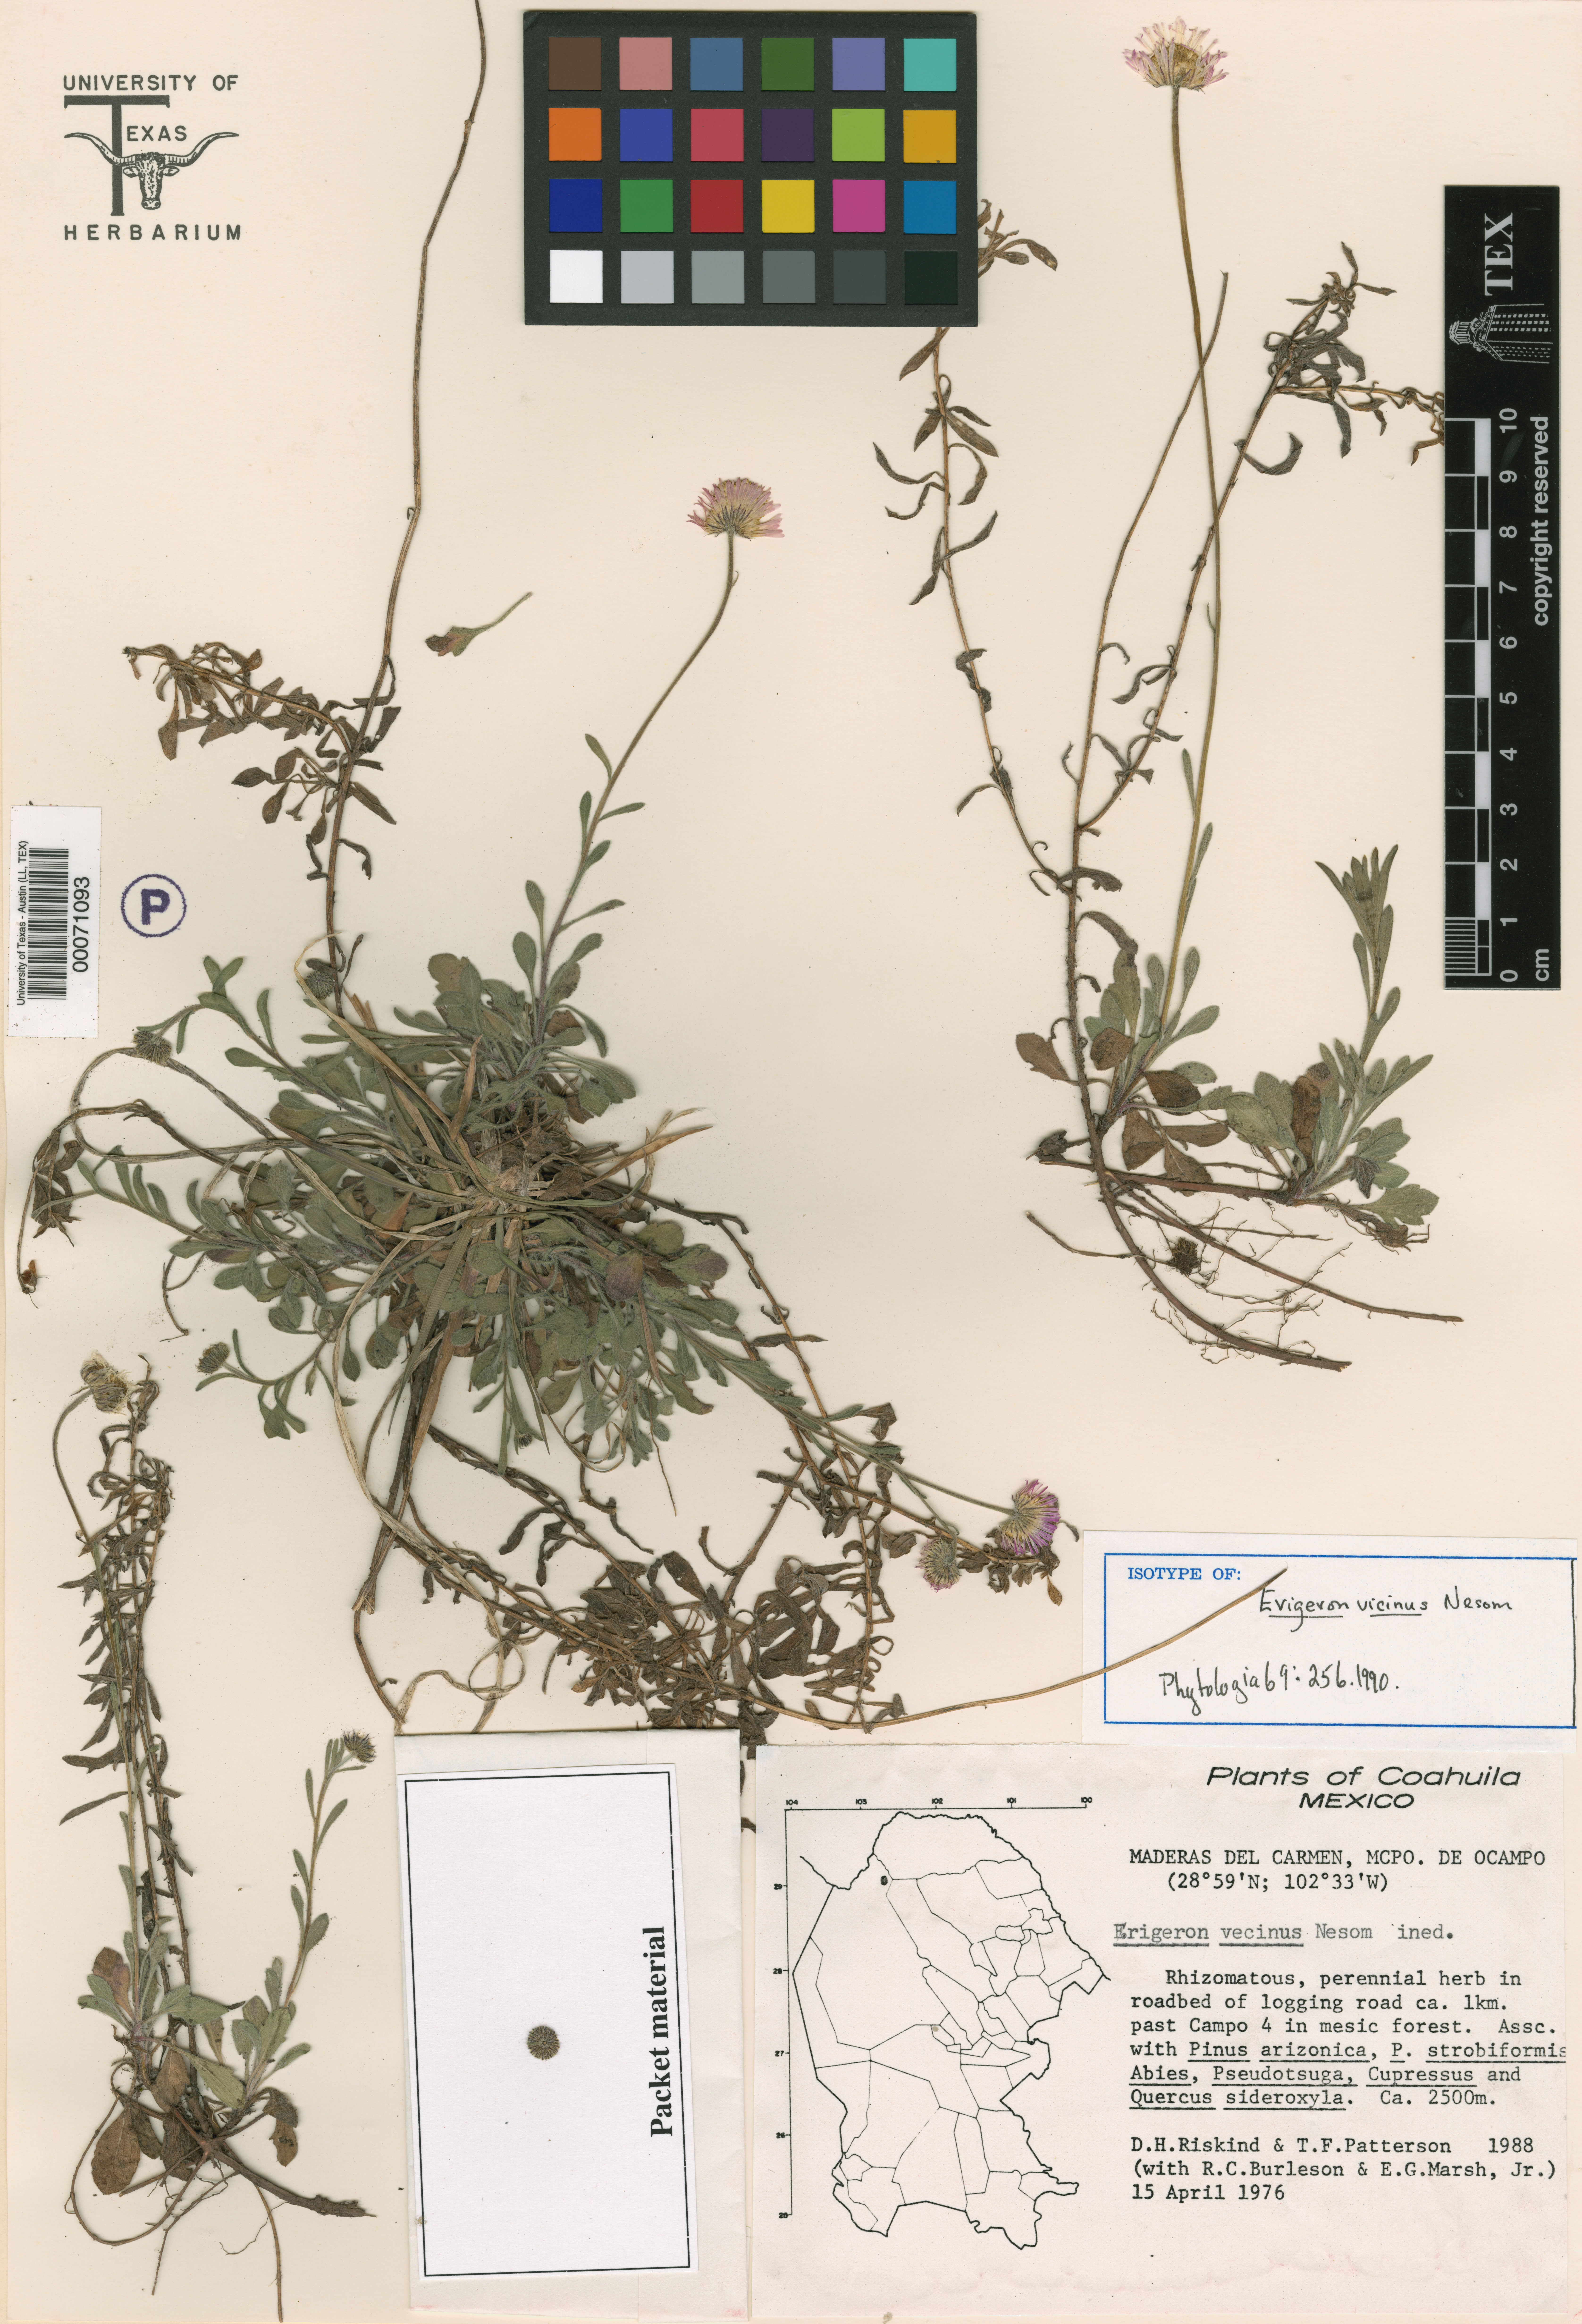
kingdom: Plantae
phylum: Tracheophyta
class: Magnoliopsida
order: Asterales
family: Asteraceae
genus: Erigeron
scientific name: Erigeron vicinus
